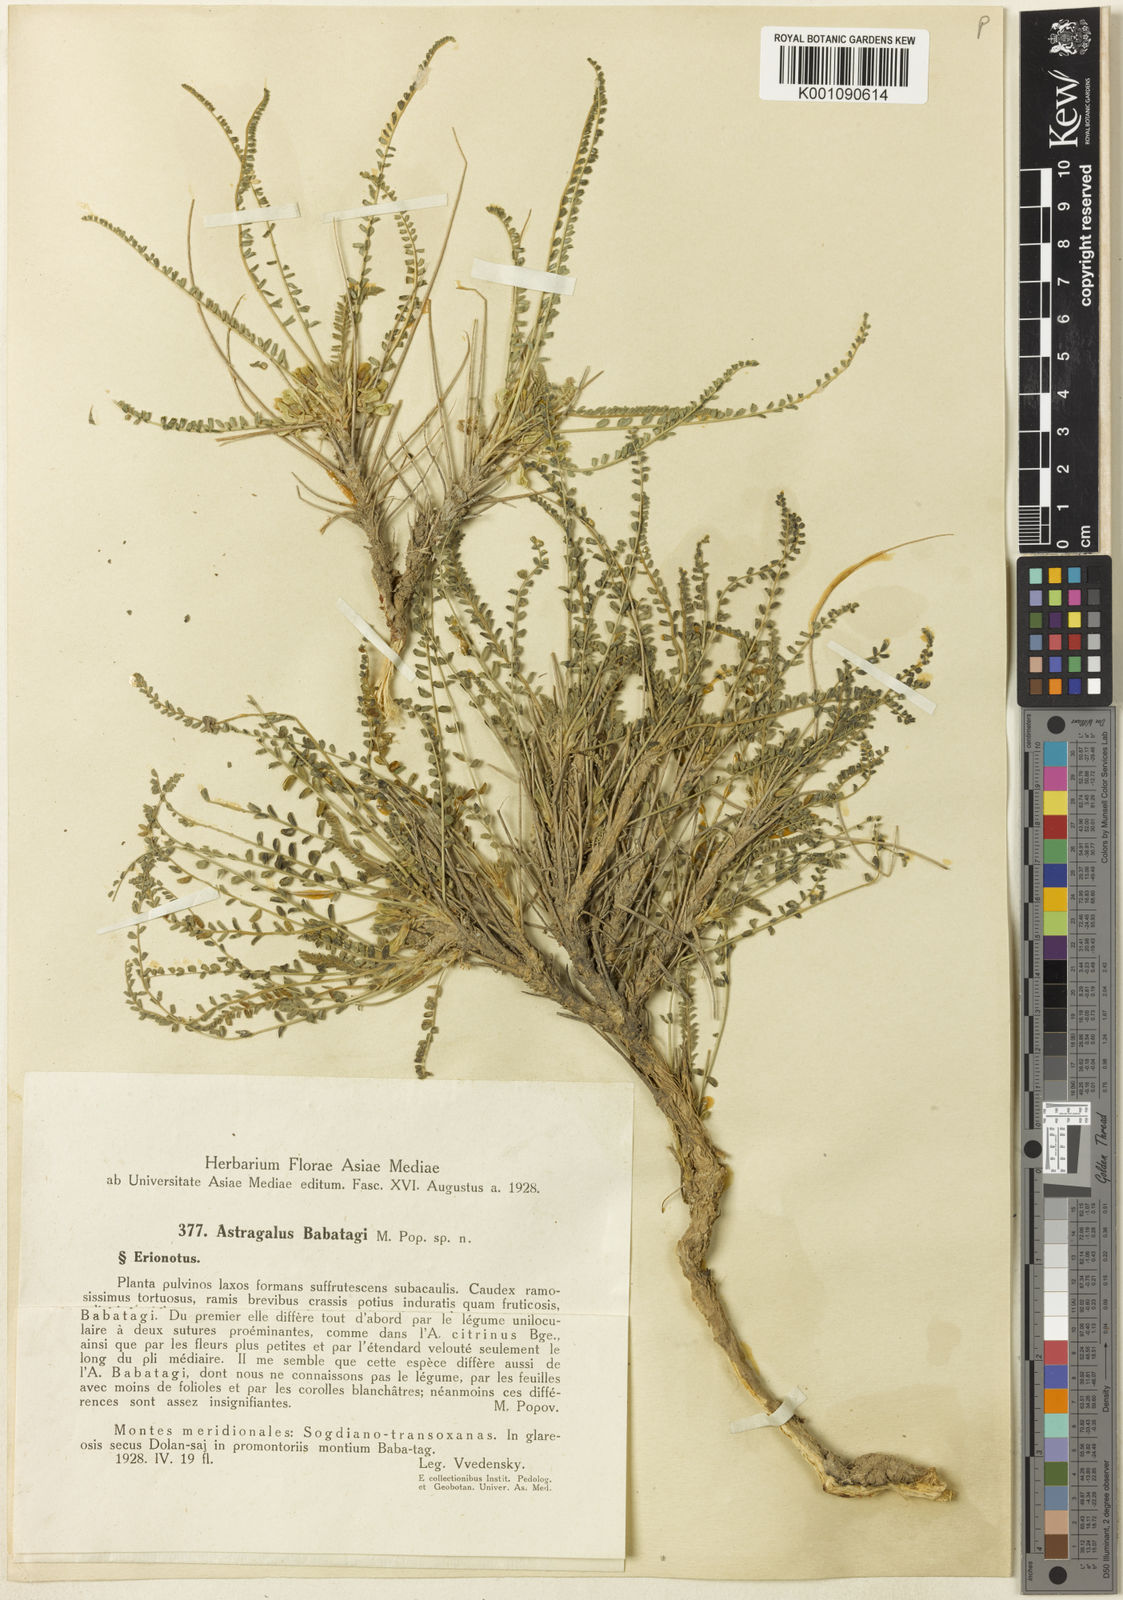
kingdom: Plantae
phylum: Tracheophyta
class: Magnoliopsida
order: Fabales
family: Fabaceae
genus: Astragalus
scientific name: Astragalus
